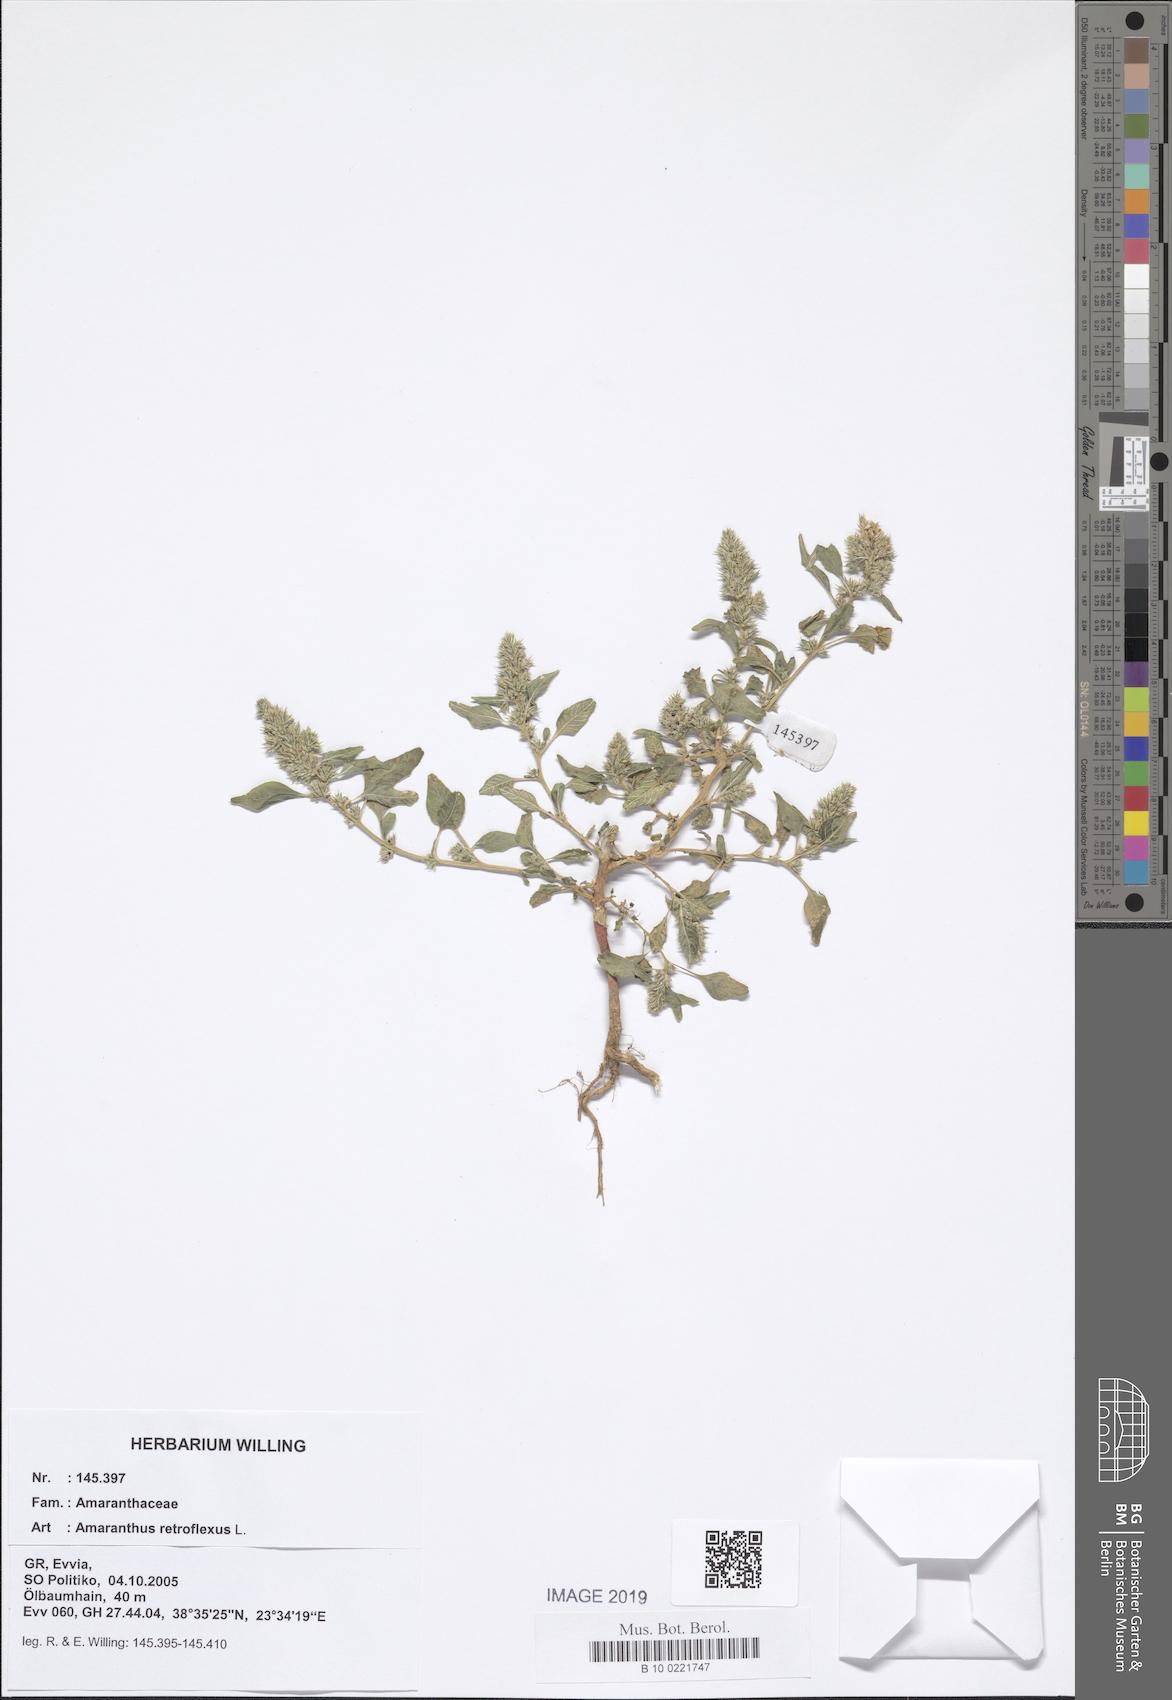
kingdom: Plantae
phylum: Tracheophyta
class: Magnoliopsida
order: Caryophyllales
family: Amaranthaceae
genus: Amaranthus
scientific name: Amaranthus retroflexus
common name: Redroot amaranth
